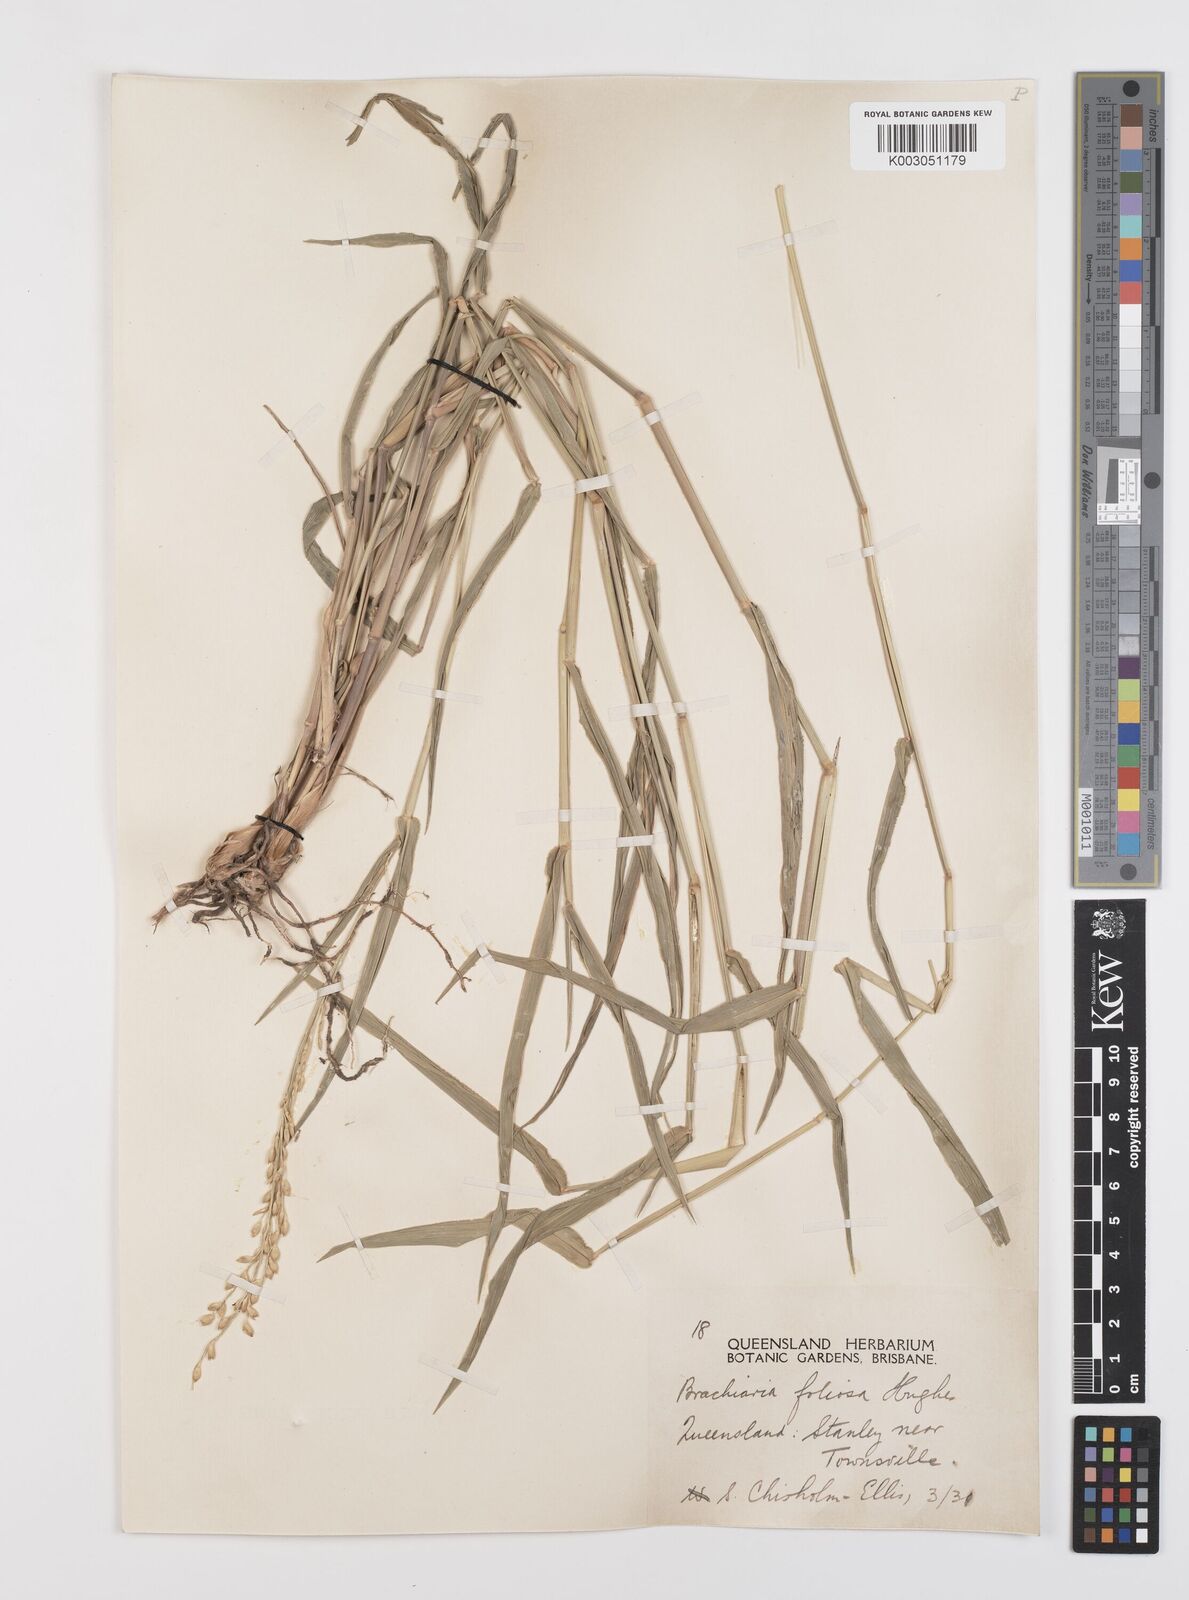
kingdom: Plantae
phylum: Tracheophyta
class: Liliopsida
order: Poales
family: Poaceae
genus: Urochloa
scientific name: Urochloa foliosa
